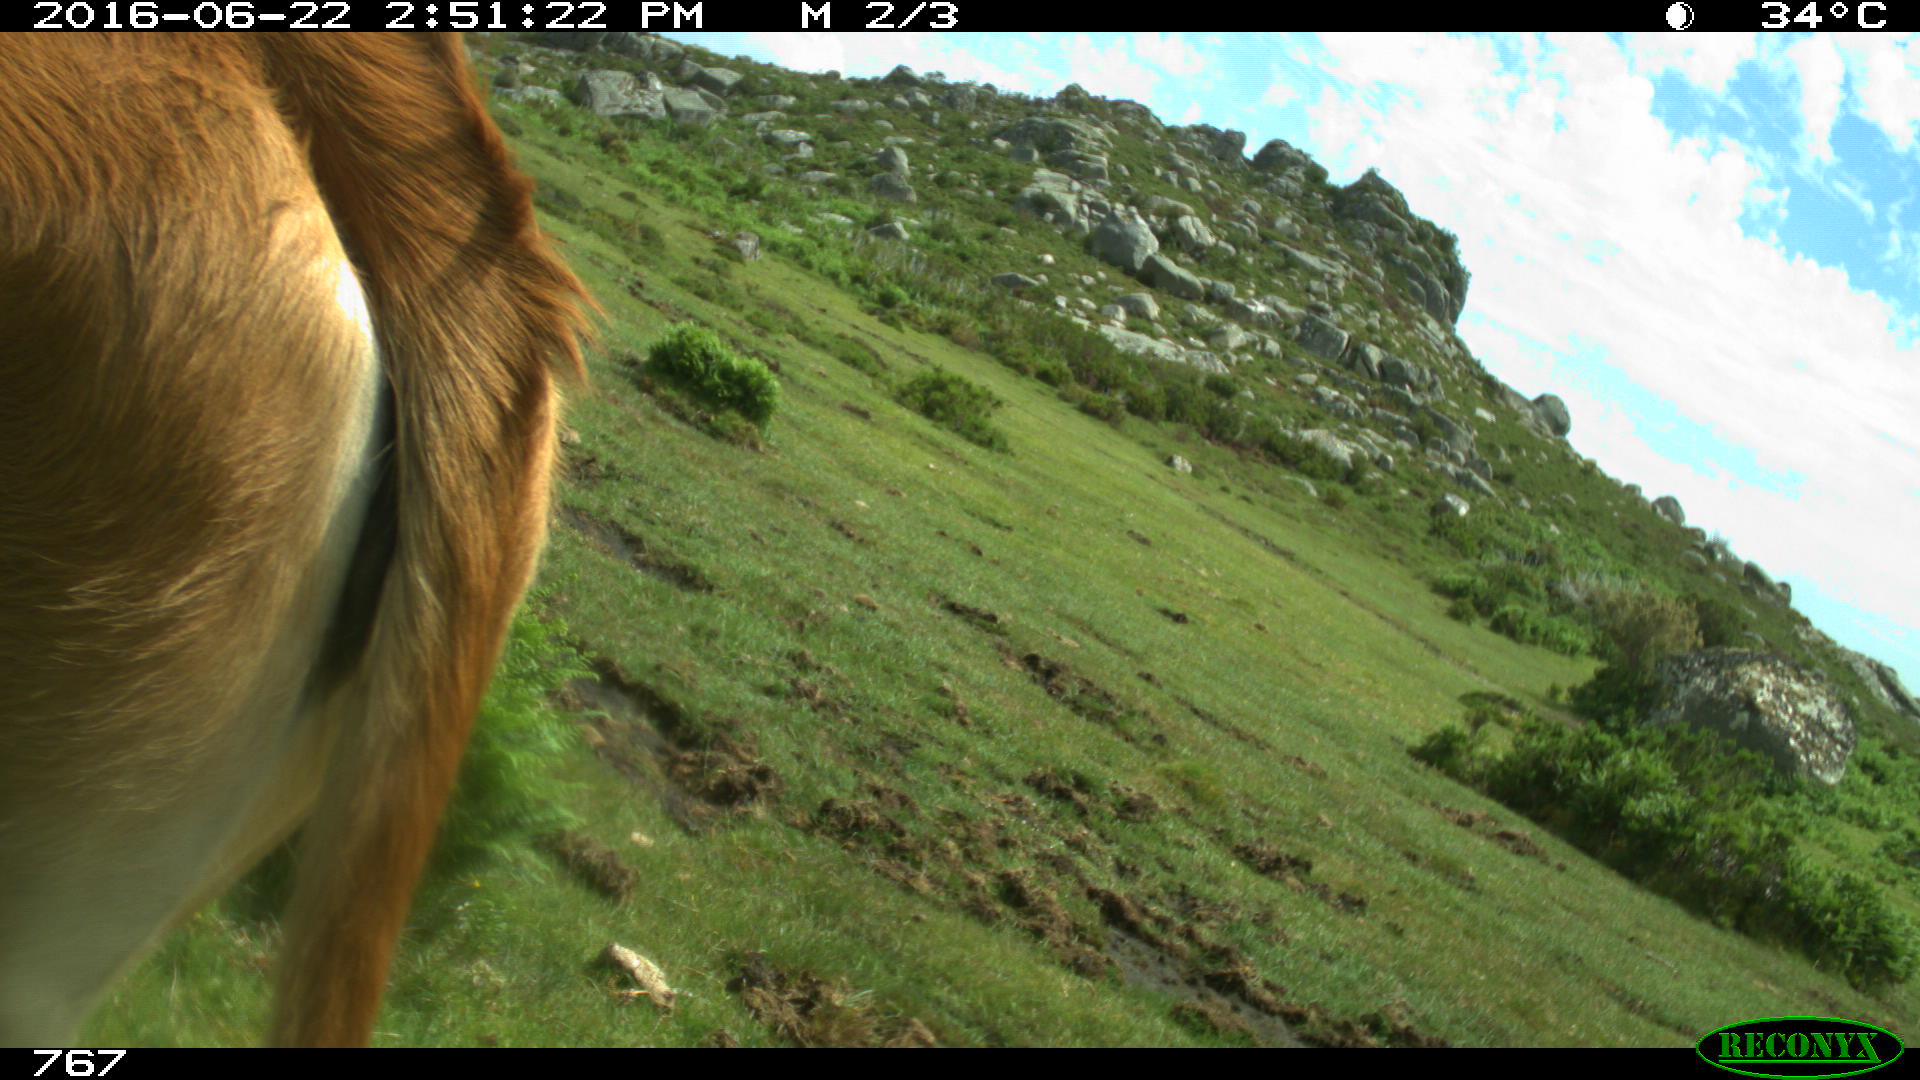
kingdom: Animalia
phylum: Chordata
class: Mammalia
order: Artiodactyla
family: Bovidae
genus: Bos
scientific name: Bos taurus
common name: Domesticated cattle
